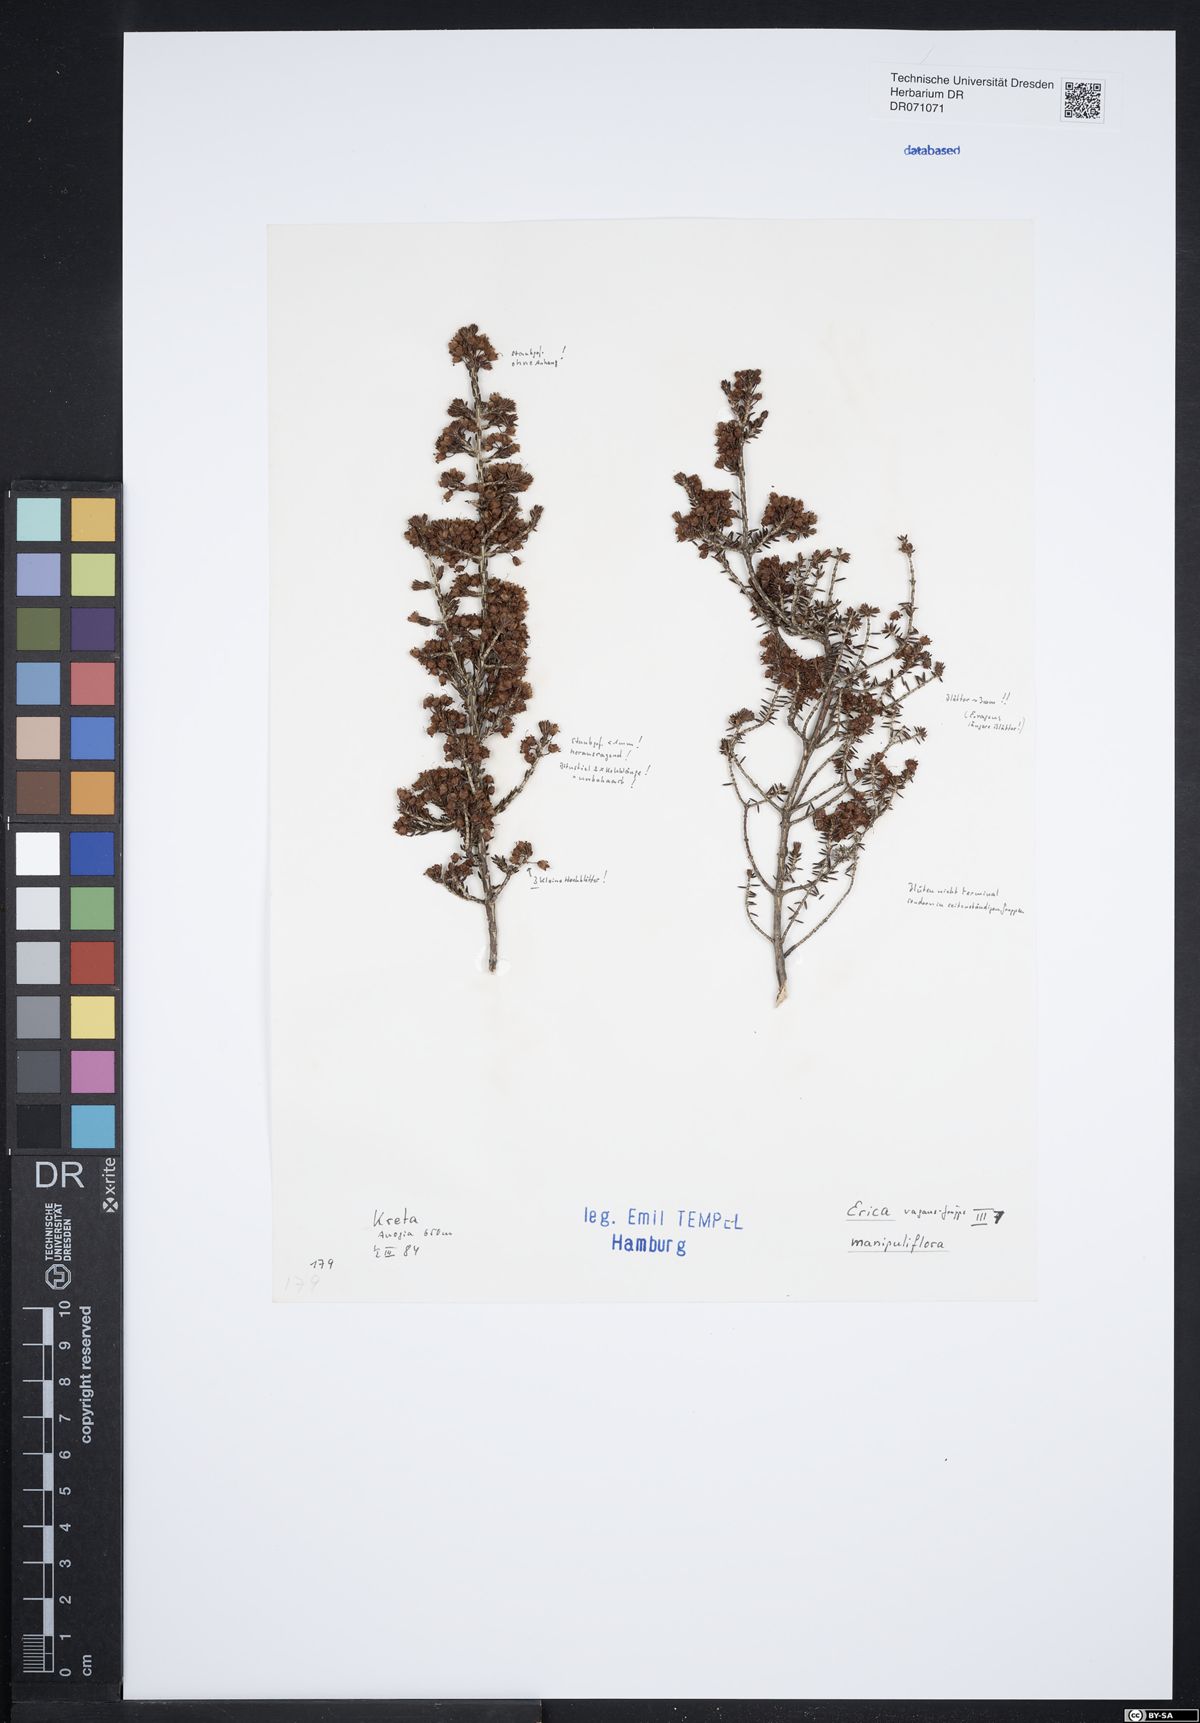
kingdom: Plantae
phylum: Tracheophyta
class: Magnoliopsida
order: Ericales
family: Ericaceae
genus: Erica
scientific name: Erica manipuliflora
